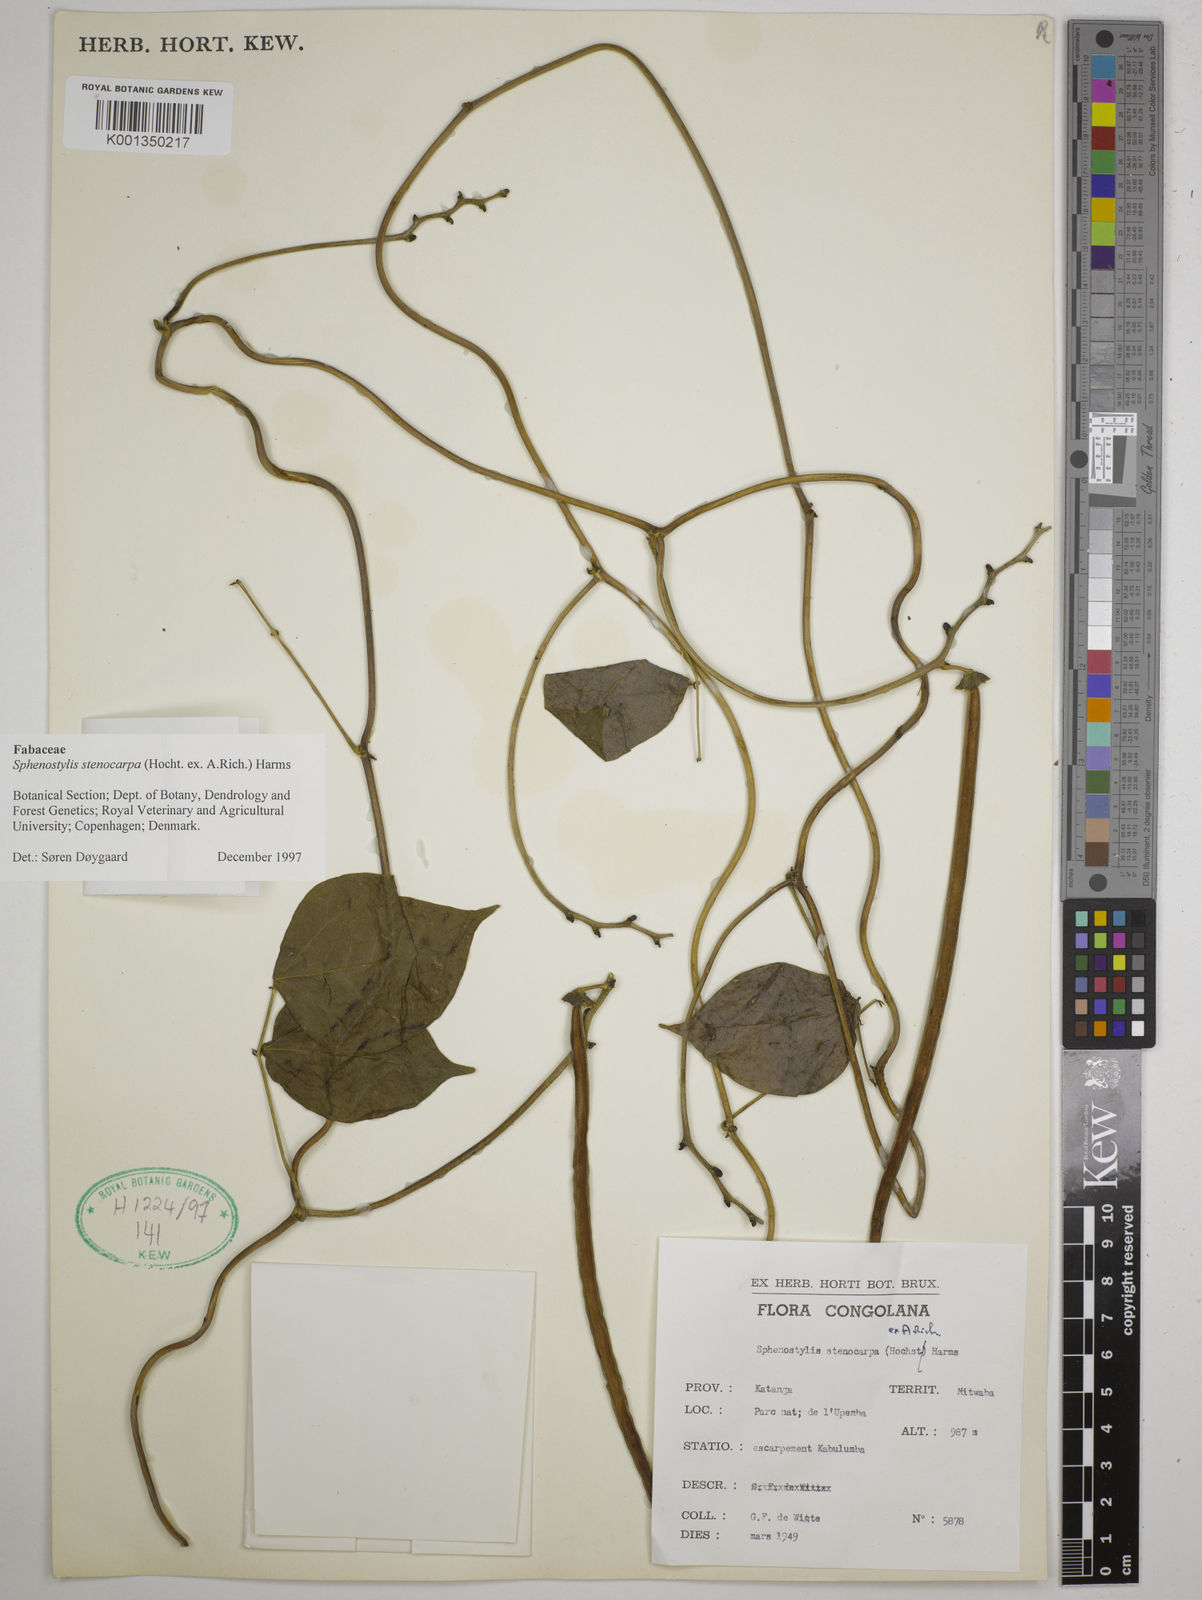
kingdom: Plantae
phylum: Tracheophyta
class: Magnoliopsida
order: Fabales
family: Fabaceae
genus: Sphenostylis
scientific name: Sphenostylis stenocarpa
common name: Yam-pea
